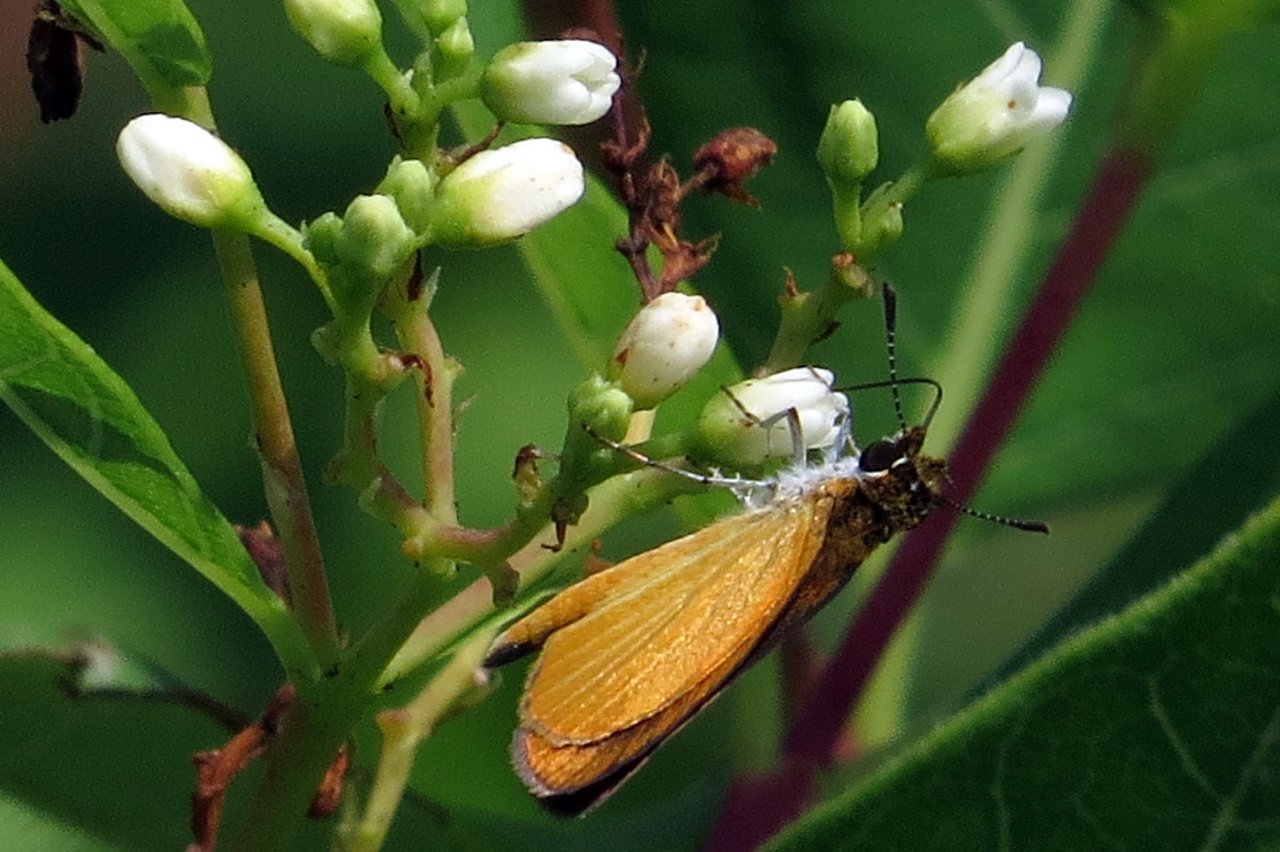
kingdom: Animalia
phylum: Arthropoda
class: Insecta
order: Lepidoptera
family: Hesperiidae
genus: Ancyloxypha
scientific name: Ancyloxypha numitor
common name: Least Skipper
